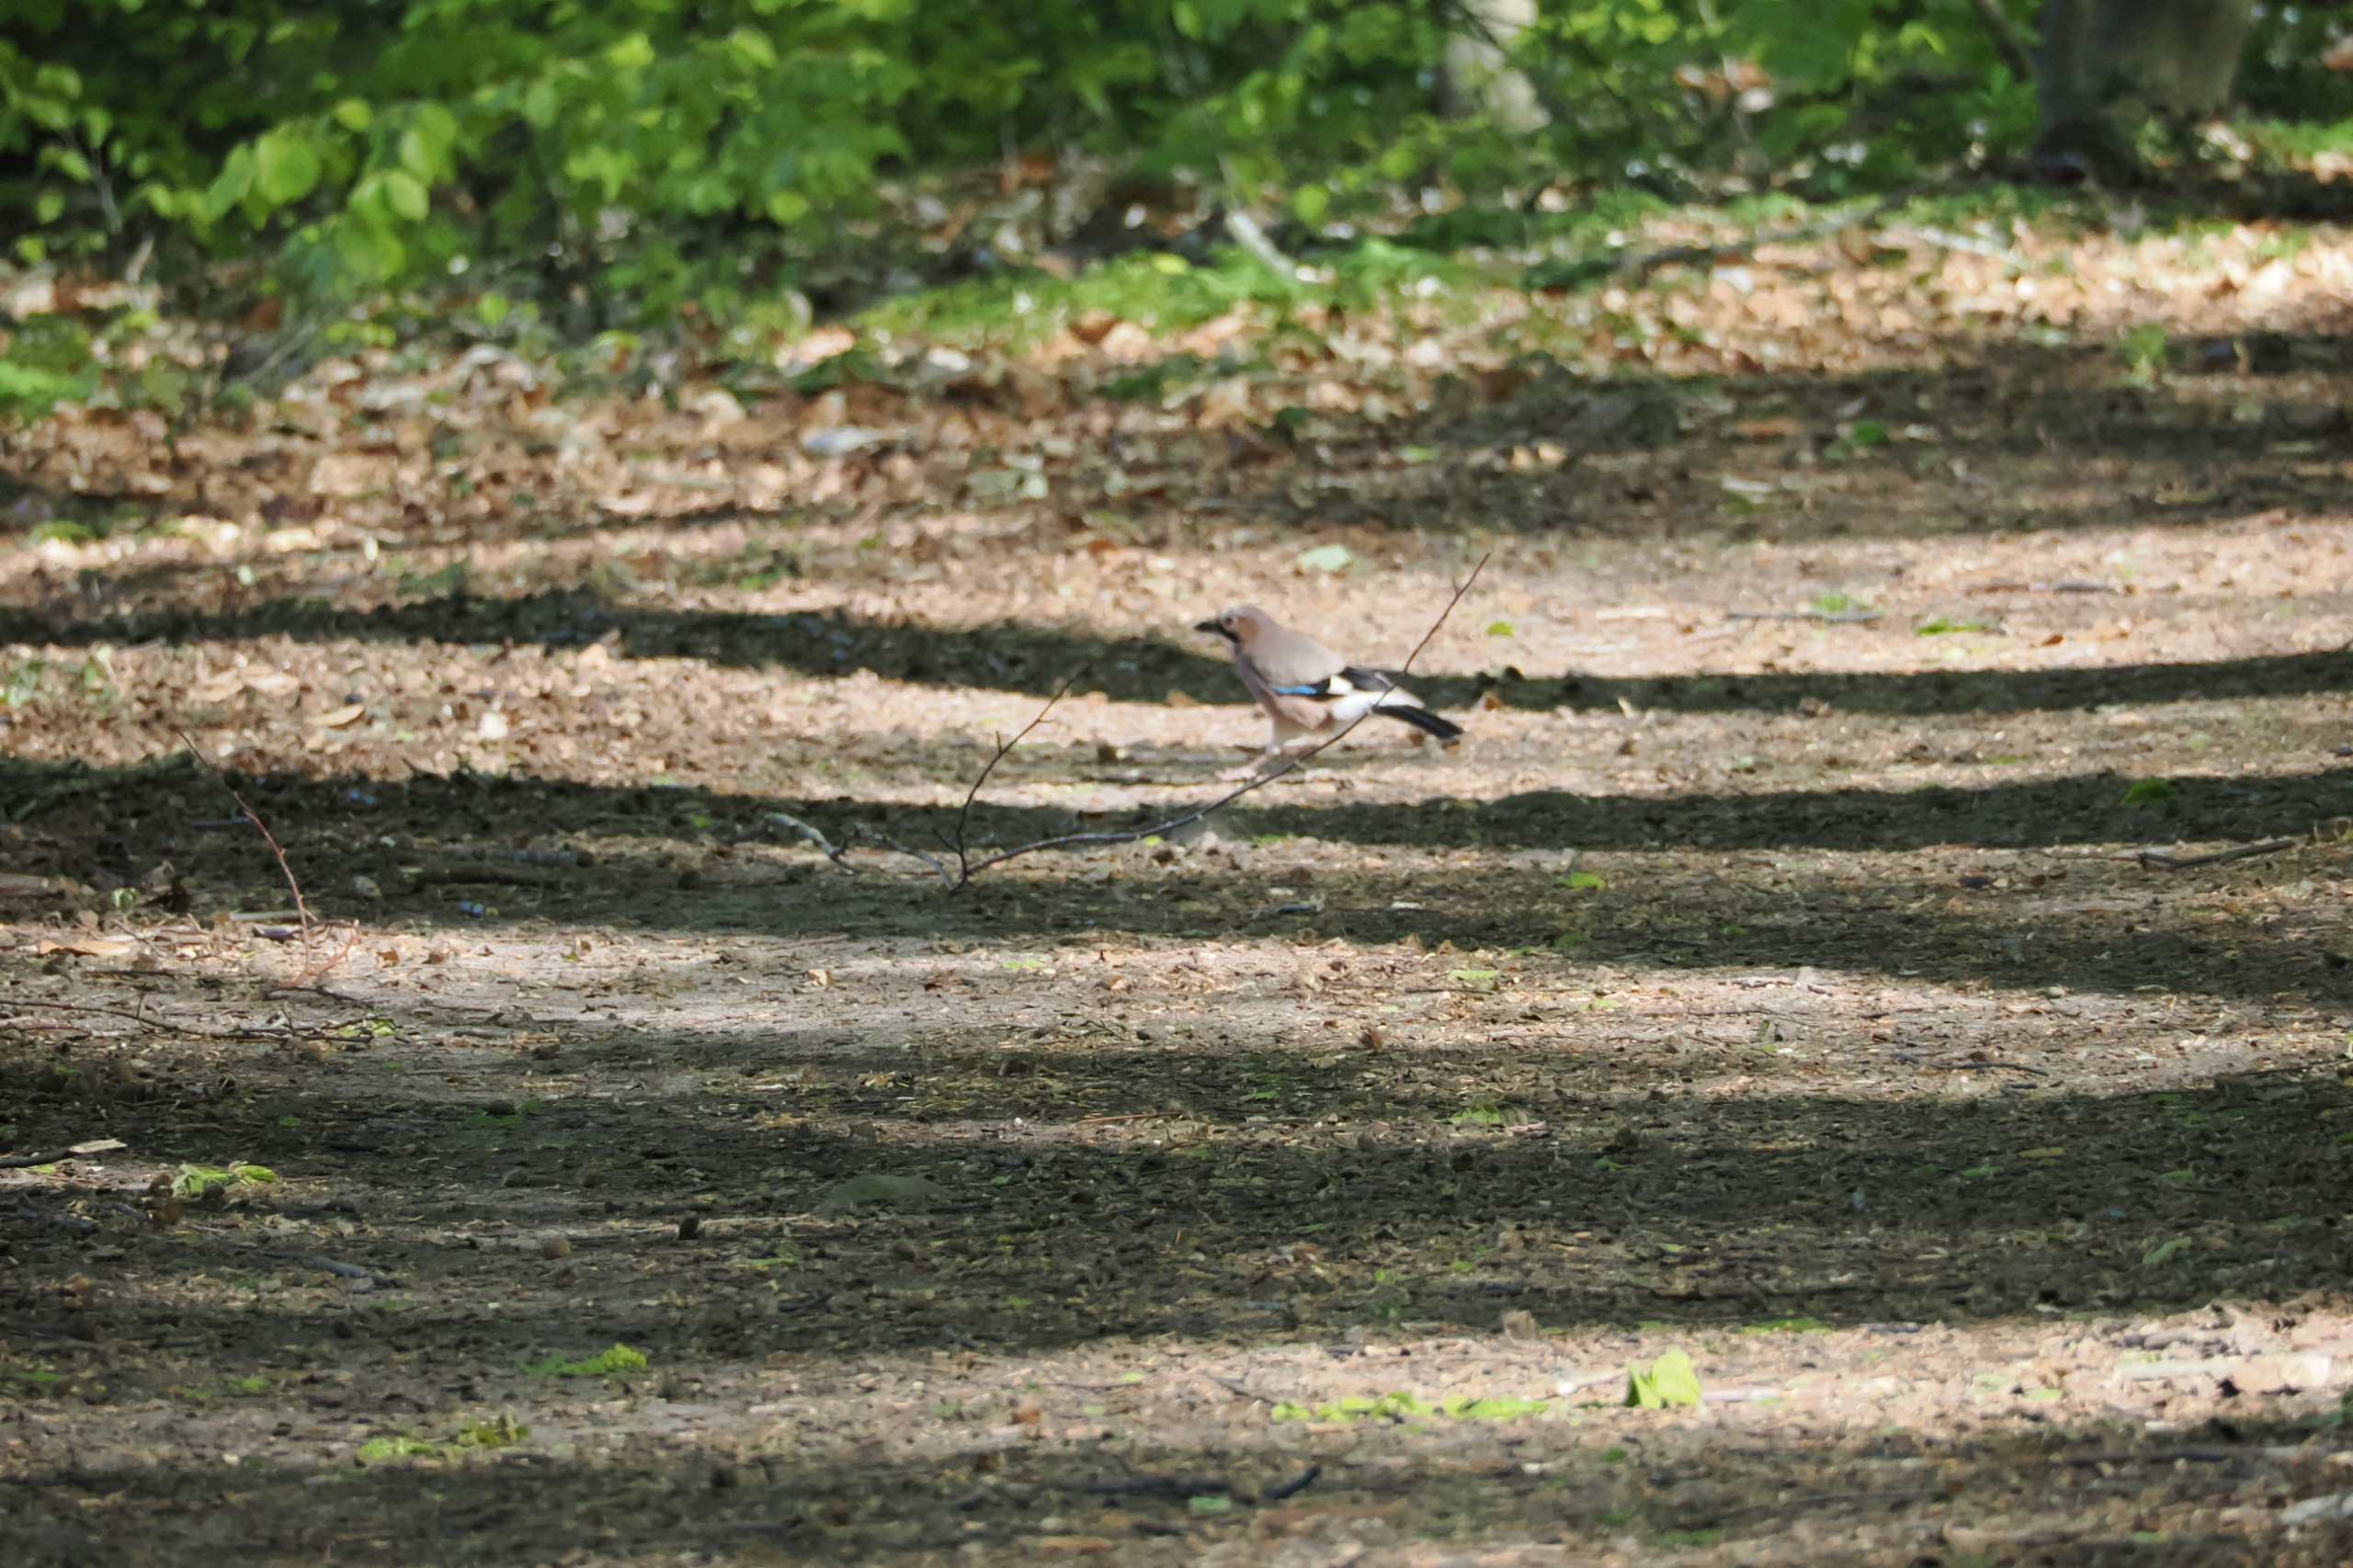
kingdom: Animalia
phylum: Chordata
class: Aves
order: Passeriformes
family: Corvidae
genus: Garrulus
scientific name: Garrulus glandarius
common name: Skovskade
